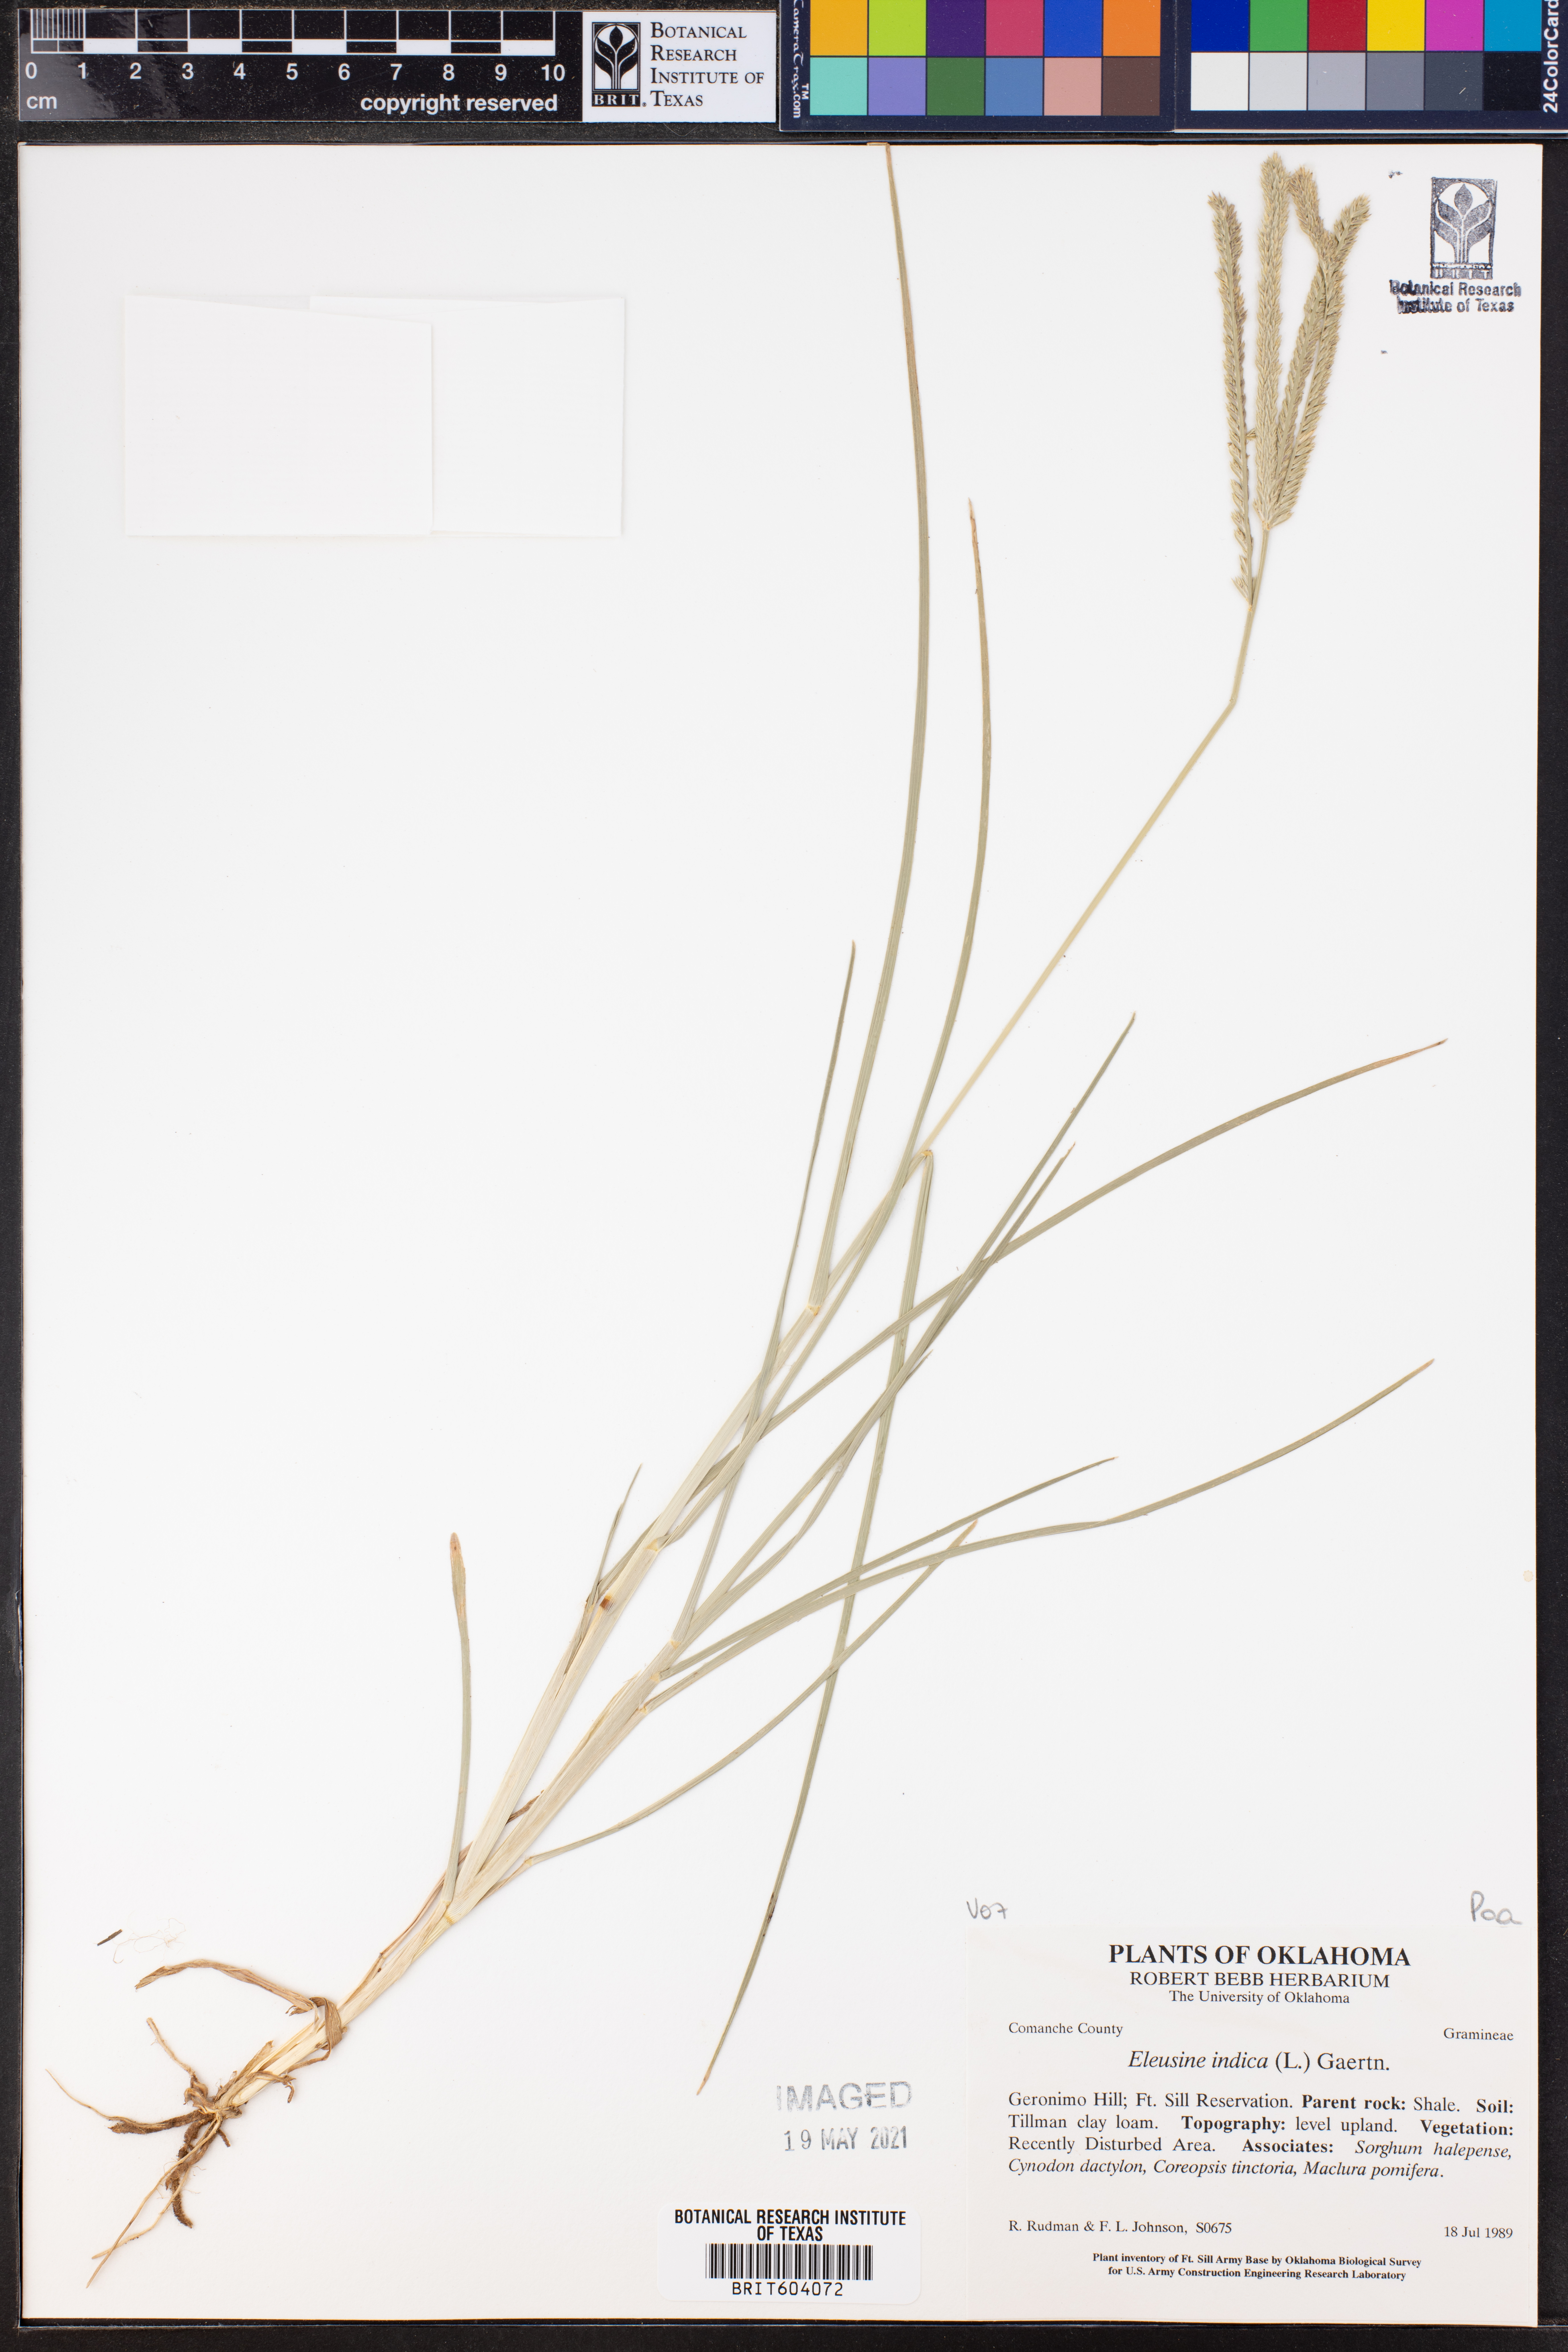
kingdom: Plantae
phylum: Tracheophyta
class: Liliopsida
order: Poales
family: Poaceae
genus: Eleusine
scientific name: Eleusine indica
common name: Yard-grass
